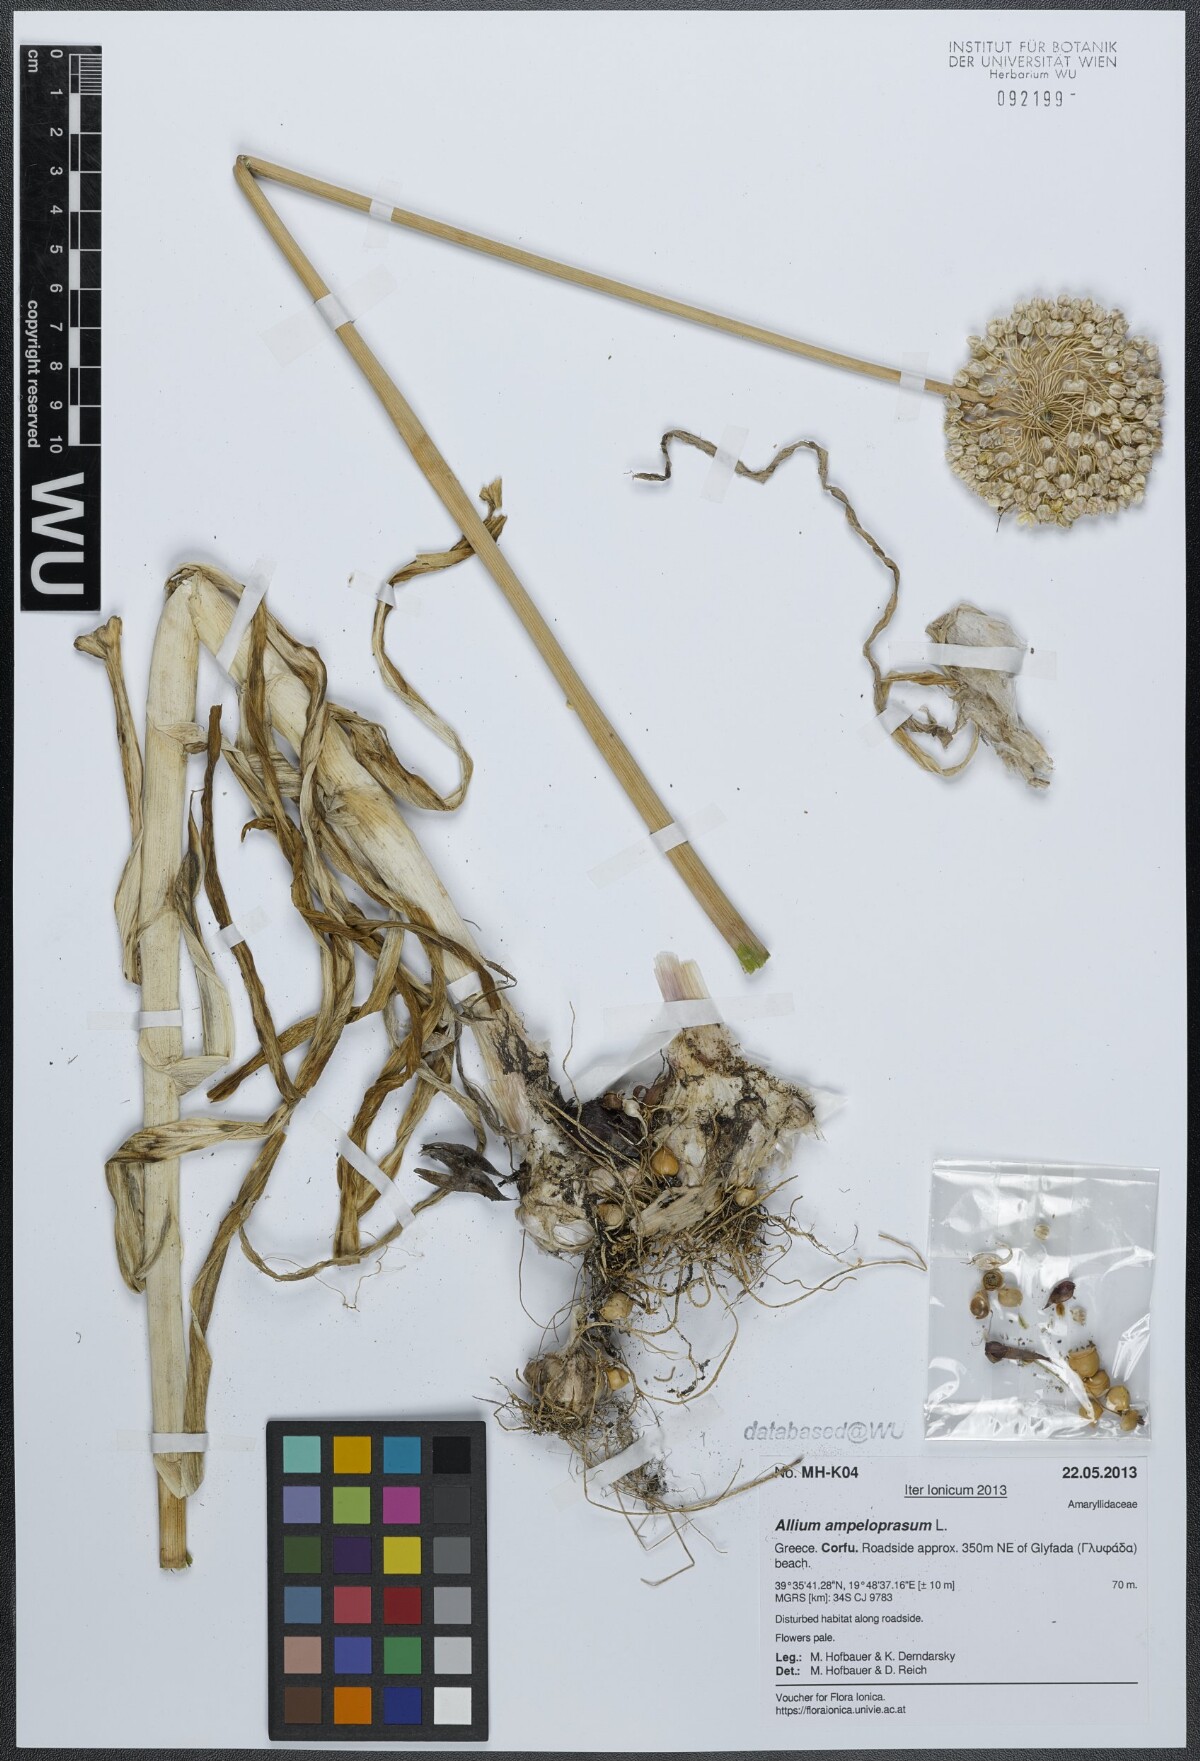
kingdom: Plantae
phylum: Tracheophyta
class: Liliopsida
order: Asparagales
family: Amaryllidaceae
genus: Allium
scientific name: Allium ampeloprasum
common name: Wild leek
